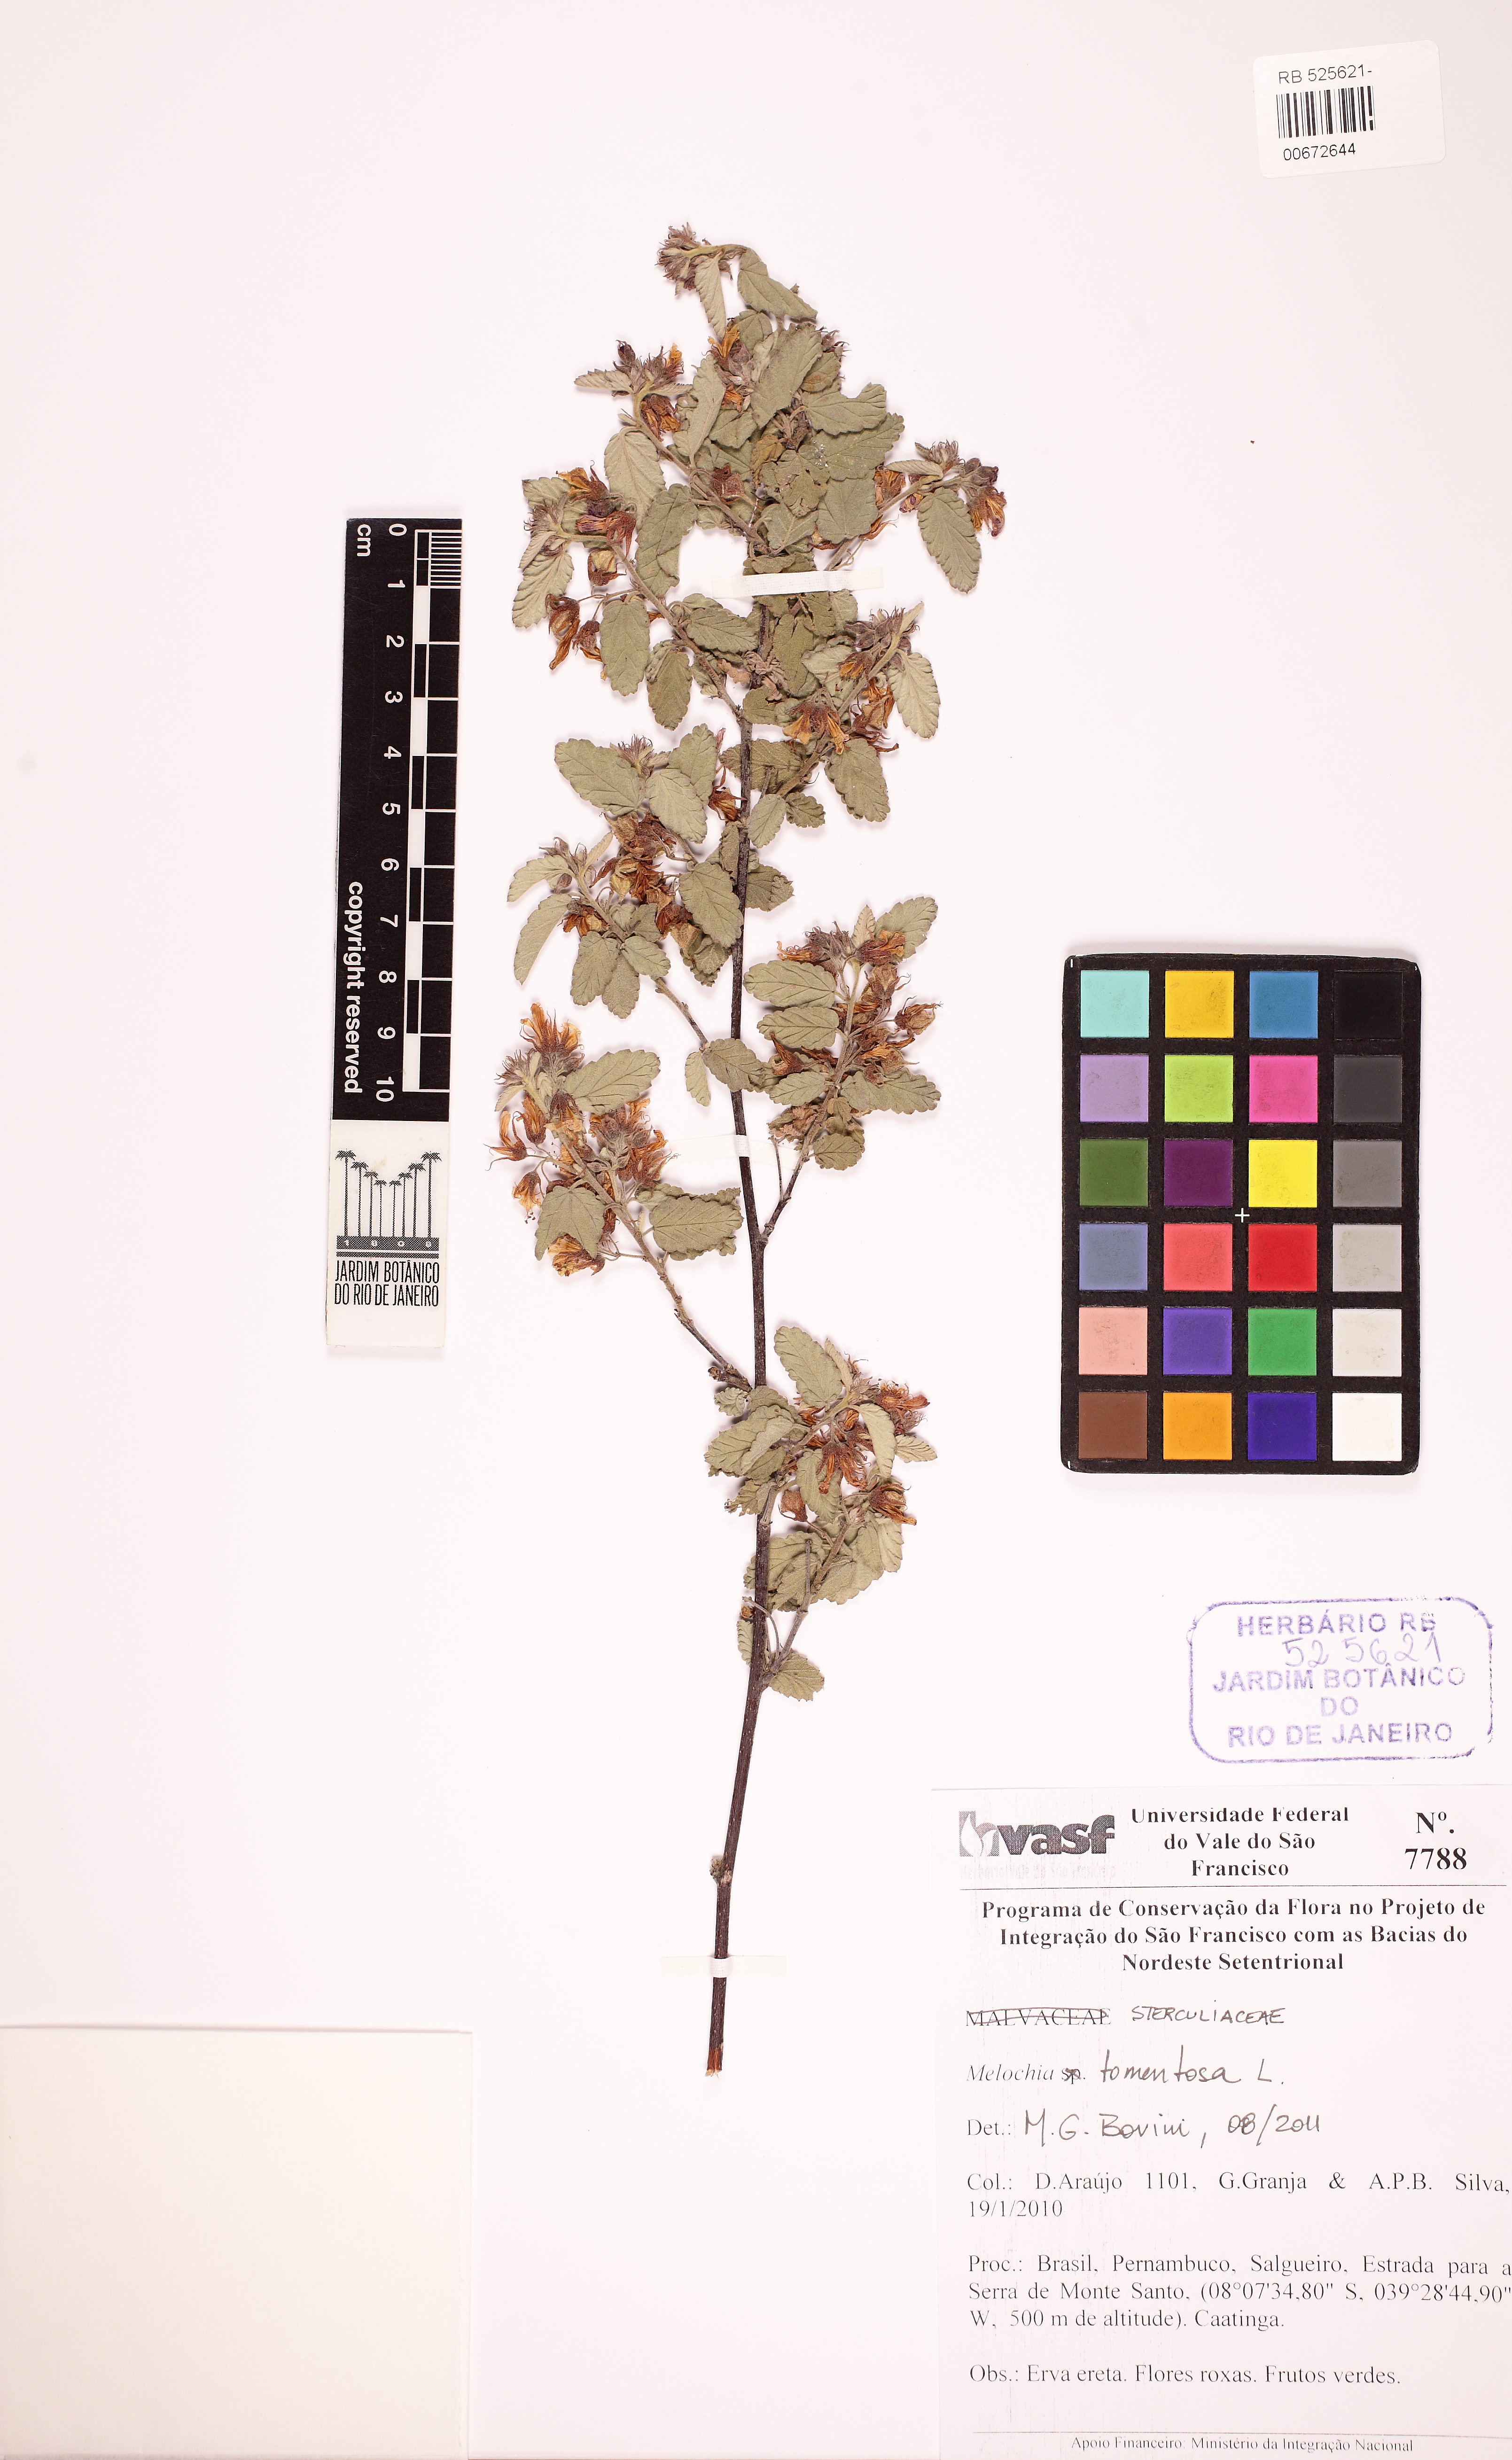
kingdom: Plantae
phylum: Tracheophyta
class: Magnoliopsida
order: Malvales
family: Malvaceae
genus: Melochia
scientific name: Melochia tomentosa
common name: Black torch
